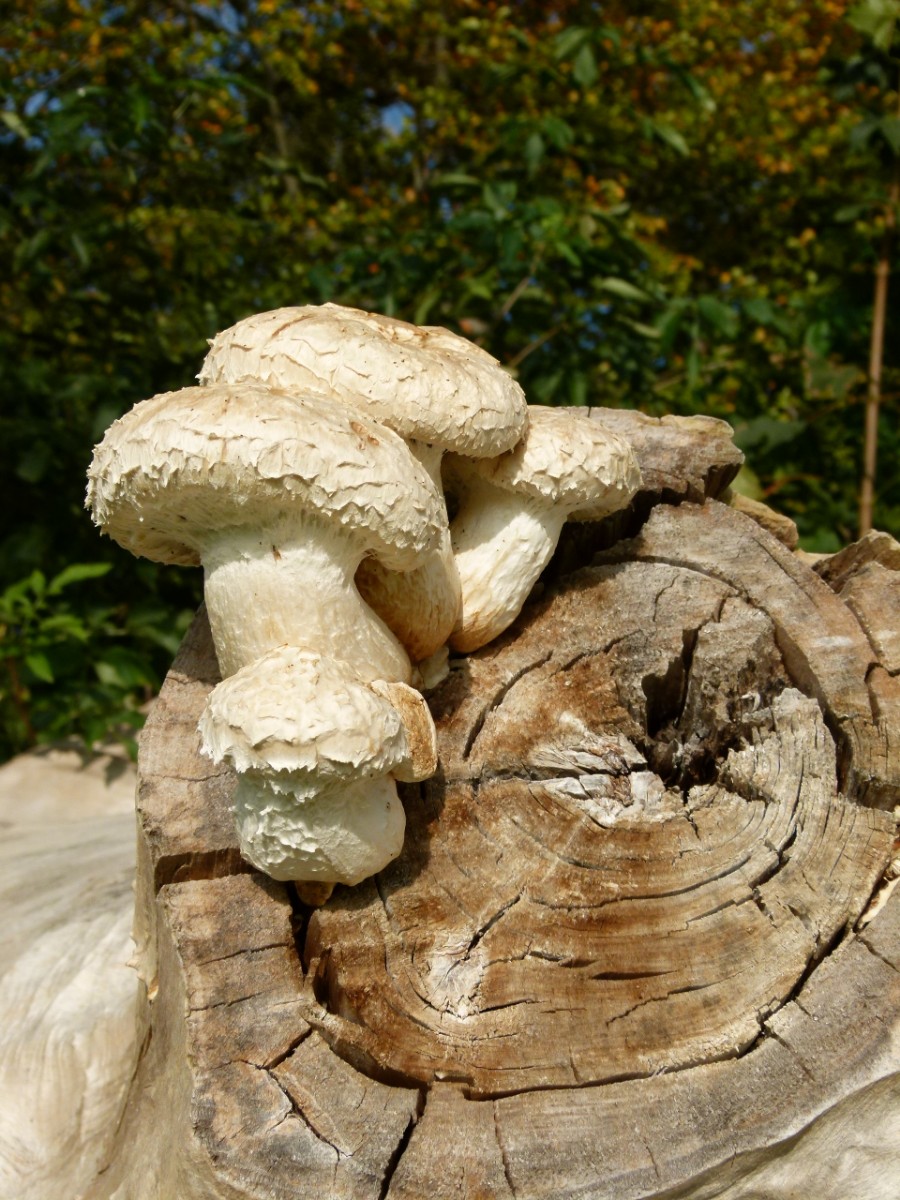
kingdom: Fungi
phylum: Basidiomycota
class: Agaricomycetes
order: Agaricales
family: Strophariaceae
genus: Pholiota
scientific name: Pholiota populnea
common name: poppel-kæmpeskælhat
